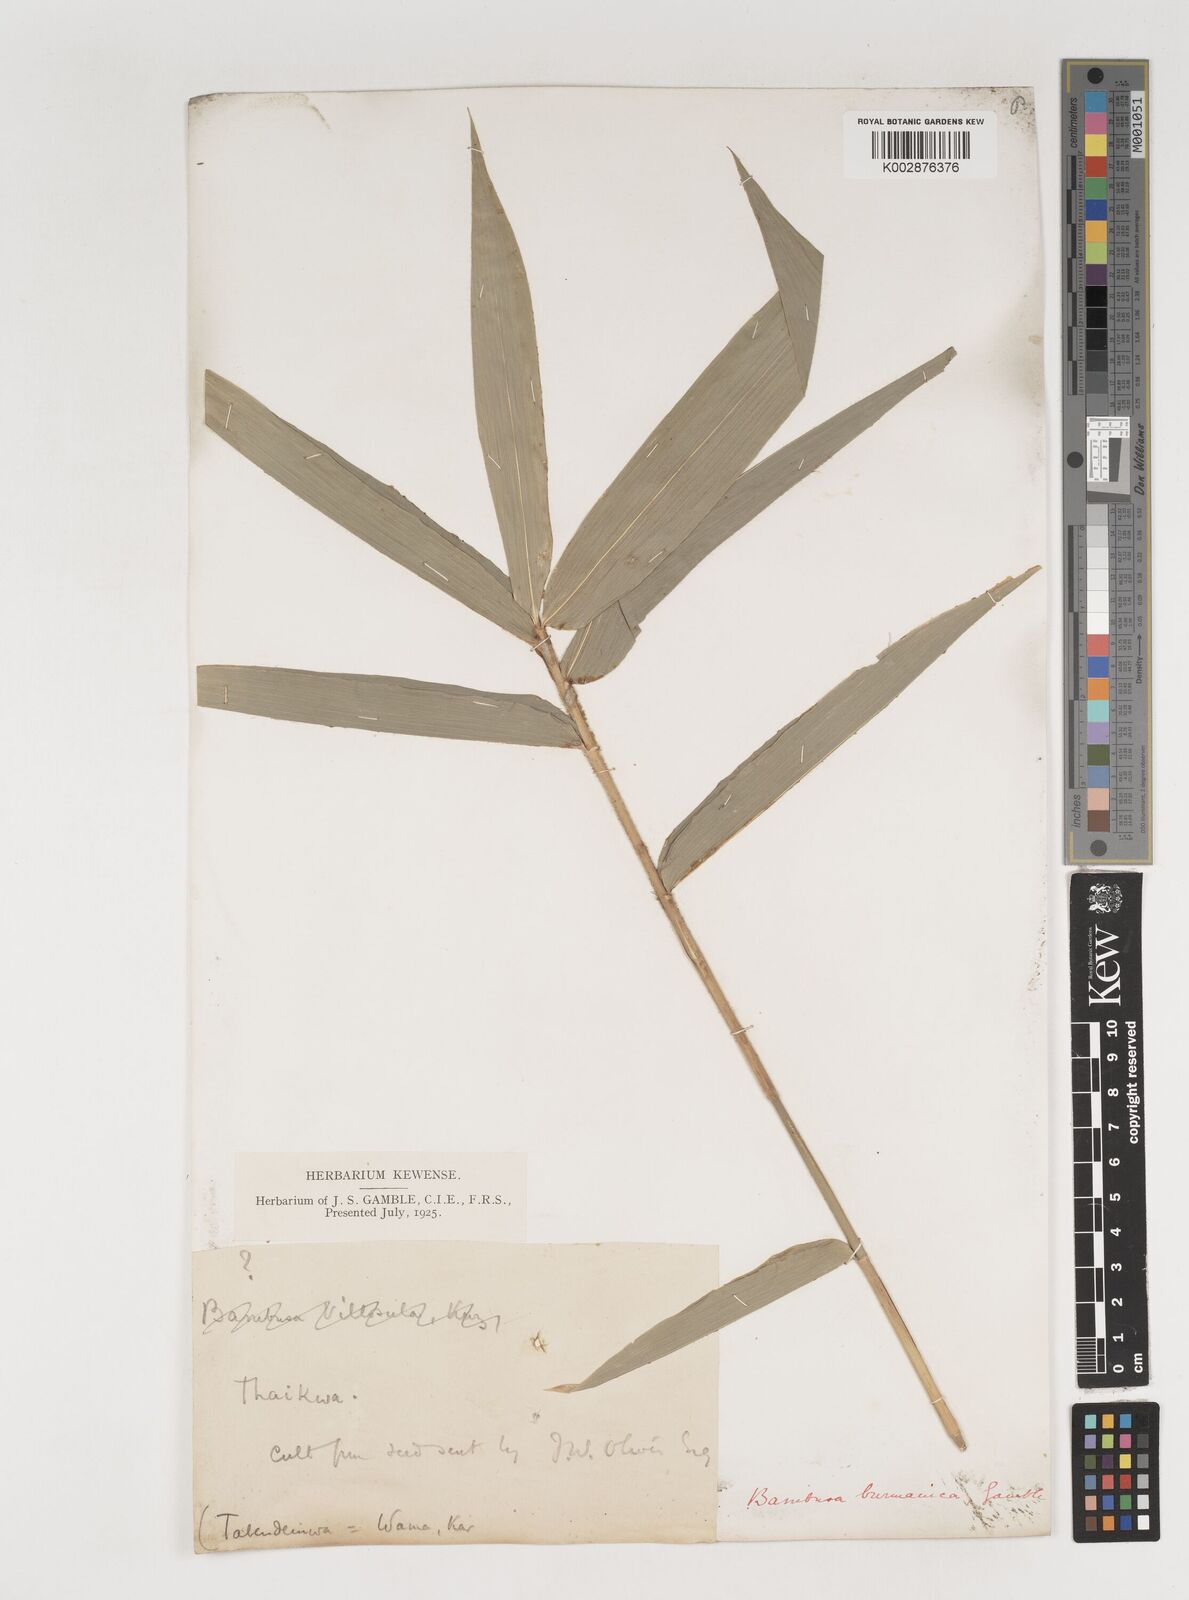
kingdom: Plantae
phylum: Tracheophyta
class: Liliopsida
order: Poales
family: Poaceae
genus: Bambusa
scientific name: Bambusa burmanica
